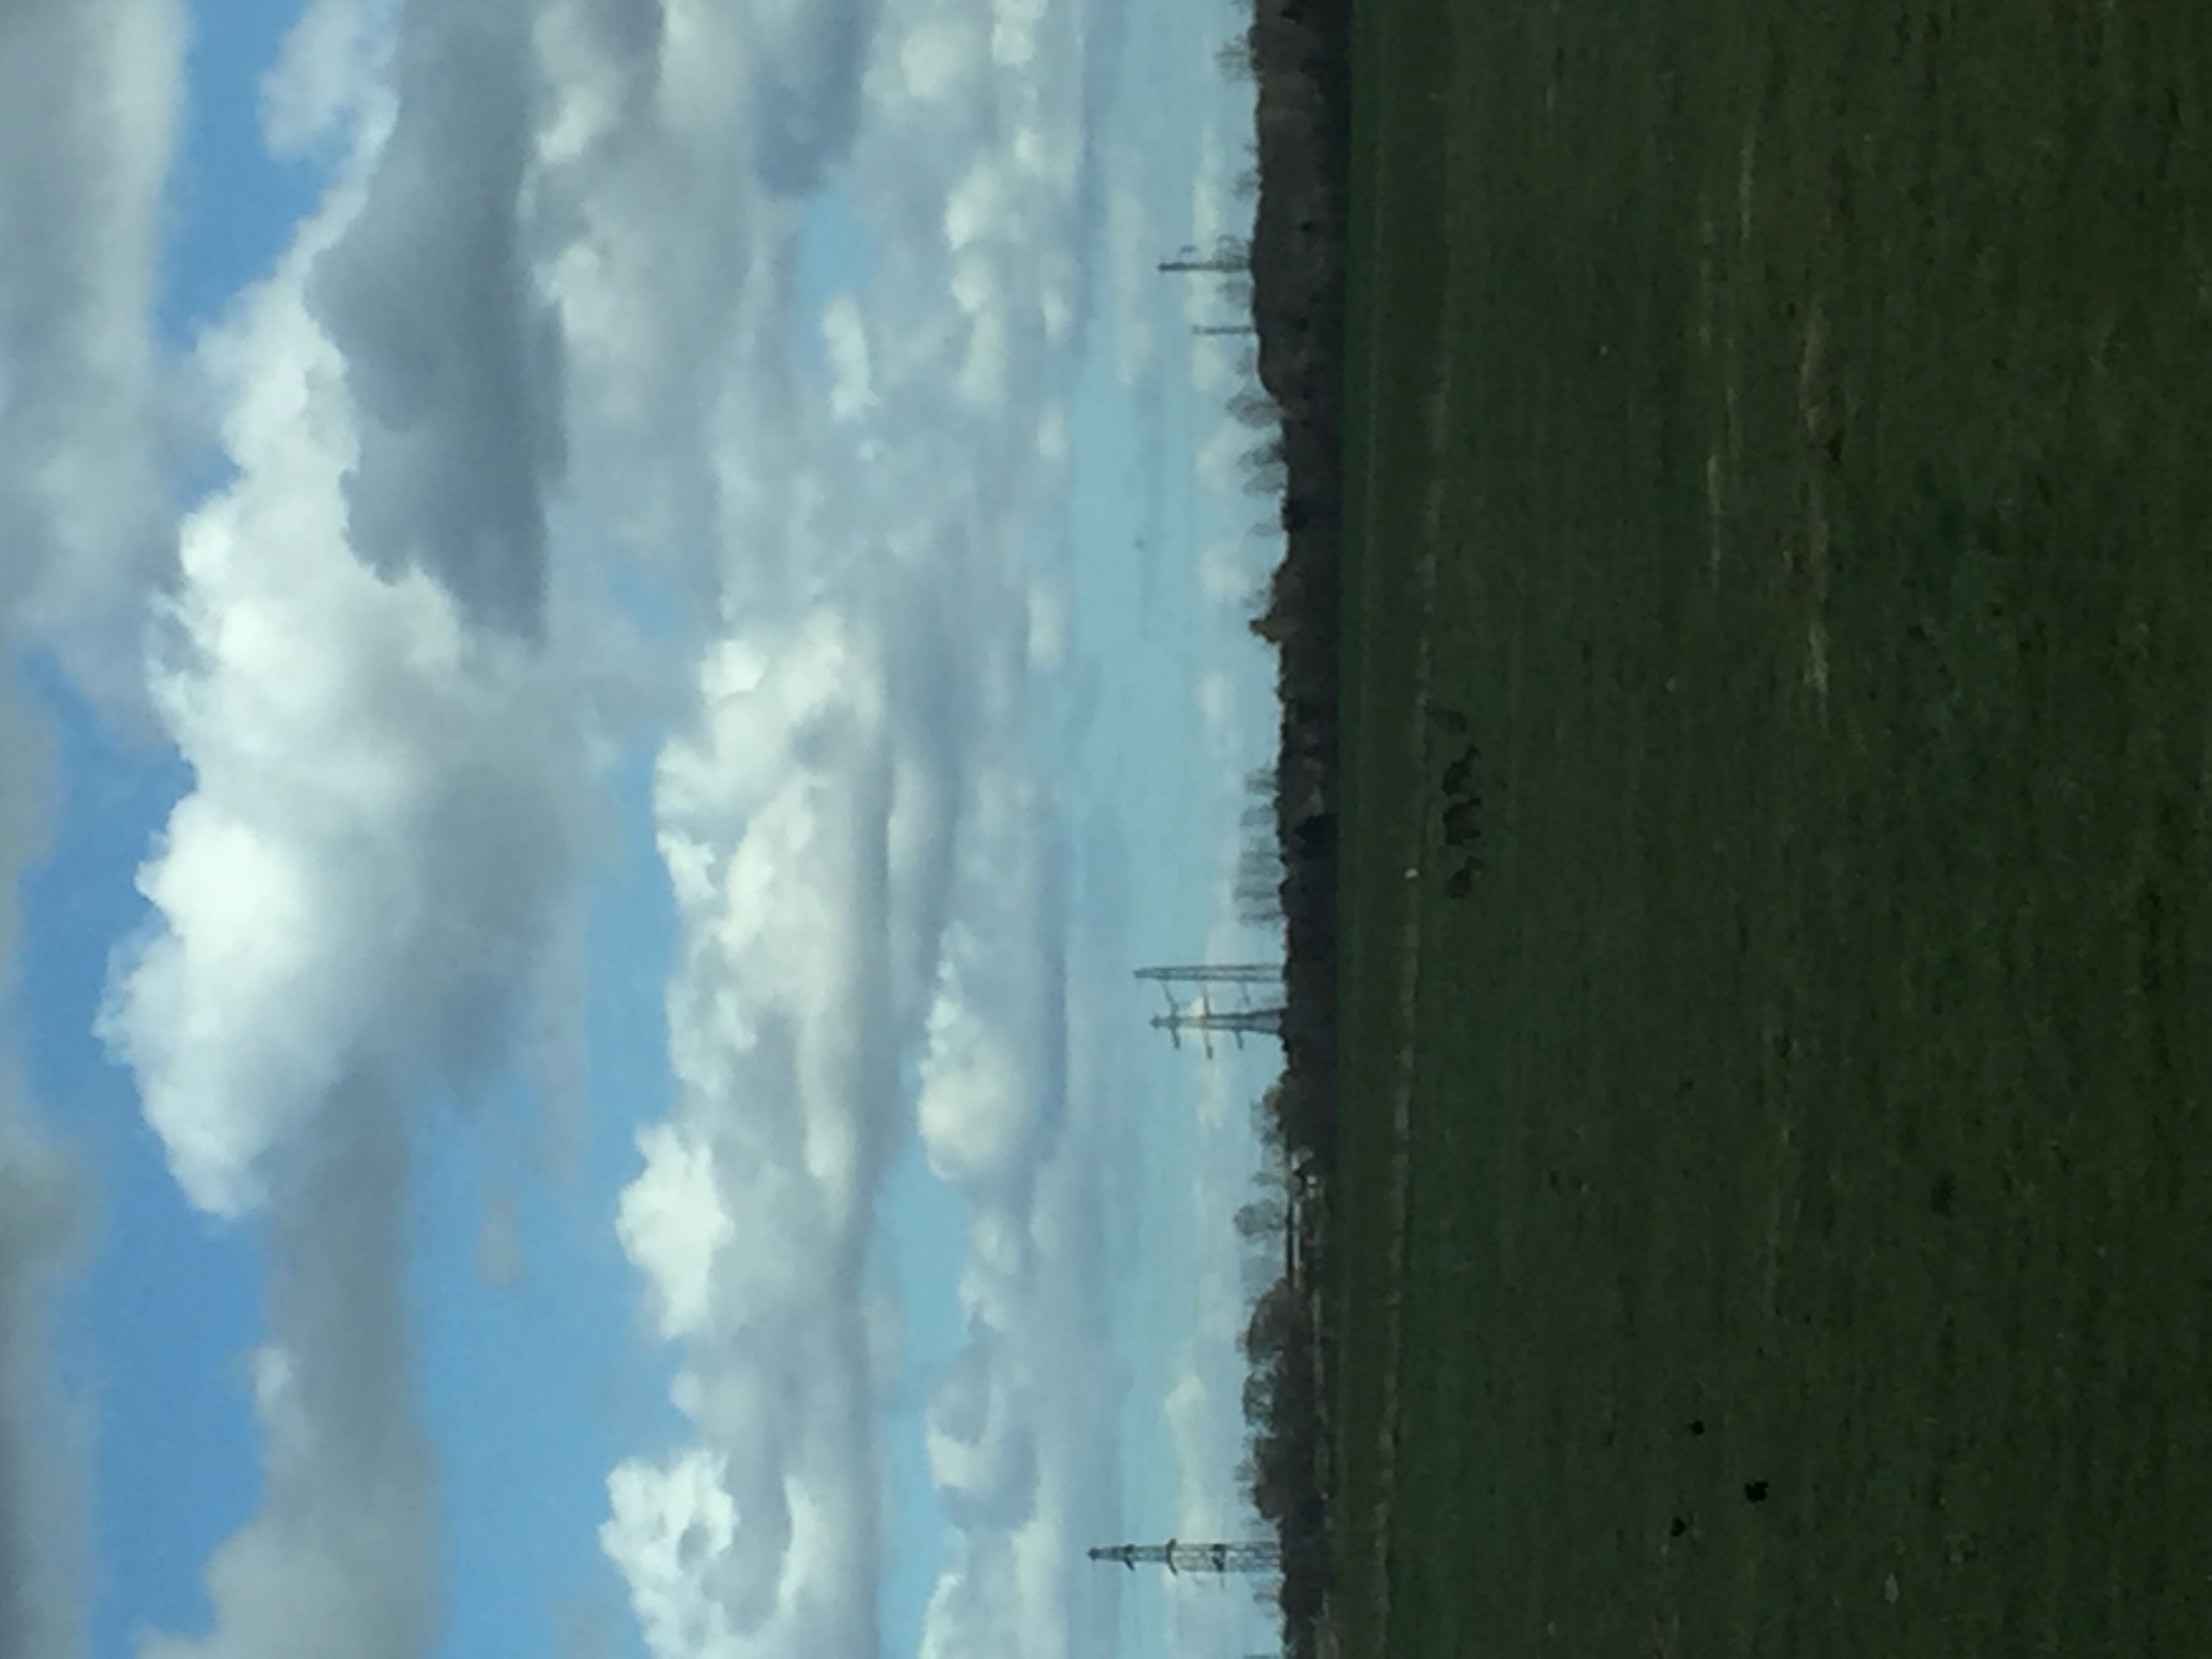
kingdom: Animalia
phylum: Chordata
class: Mammalia
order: Artiodactyla
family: Cervidae
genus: Capreolus
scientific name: Capreolus capreolus
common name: Rådyr
